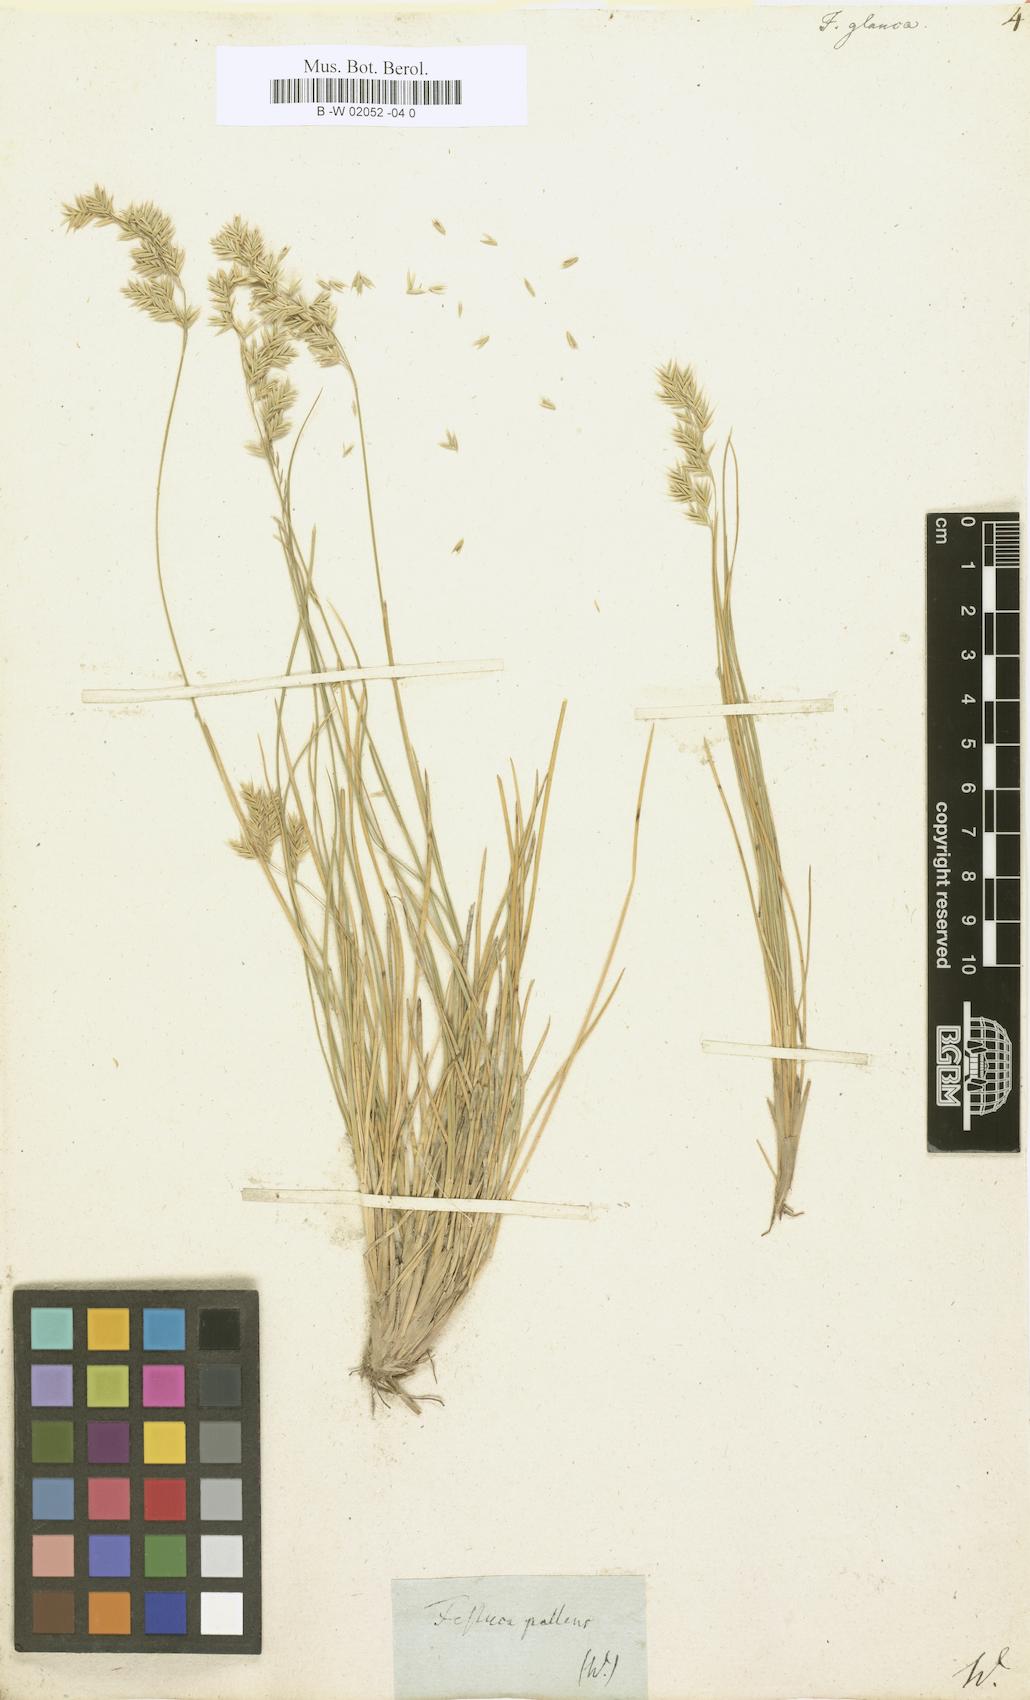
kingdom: Plantae
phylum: Tracheophyta
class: Liliopsida
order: Poales
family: Poaceae
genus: Festuca
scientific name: Festuca glauca
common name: Blue fescue
